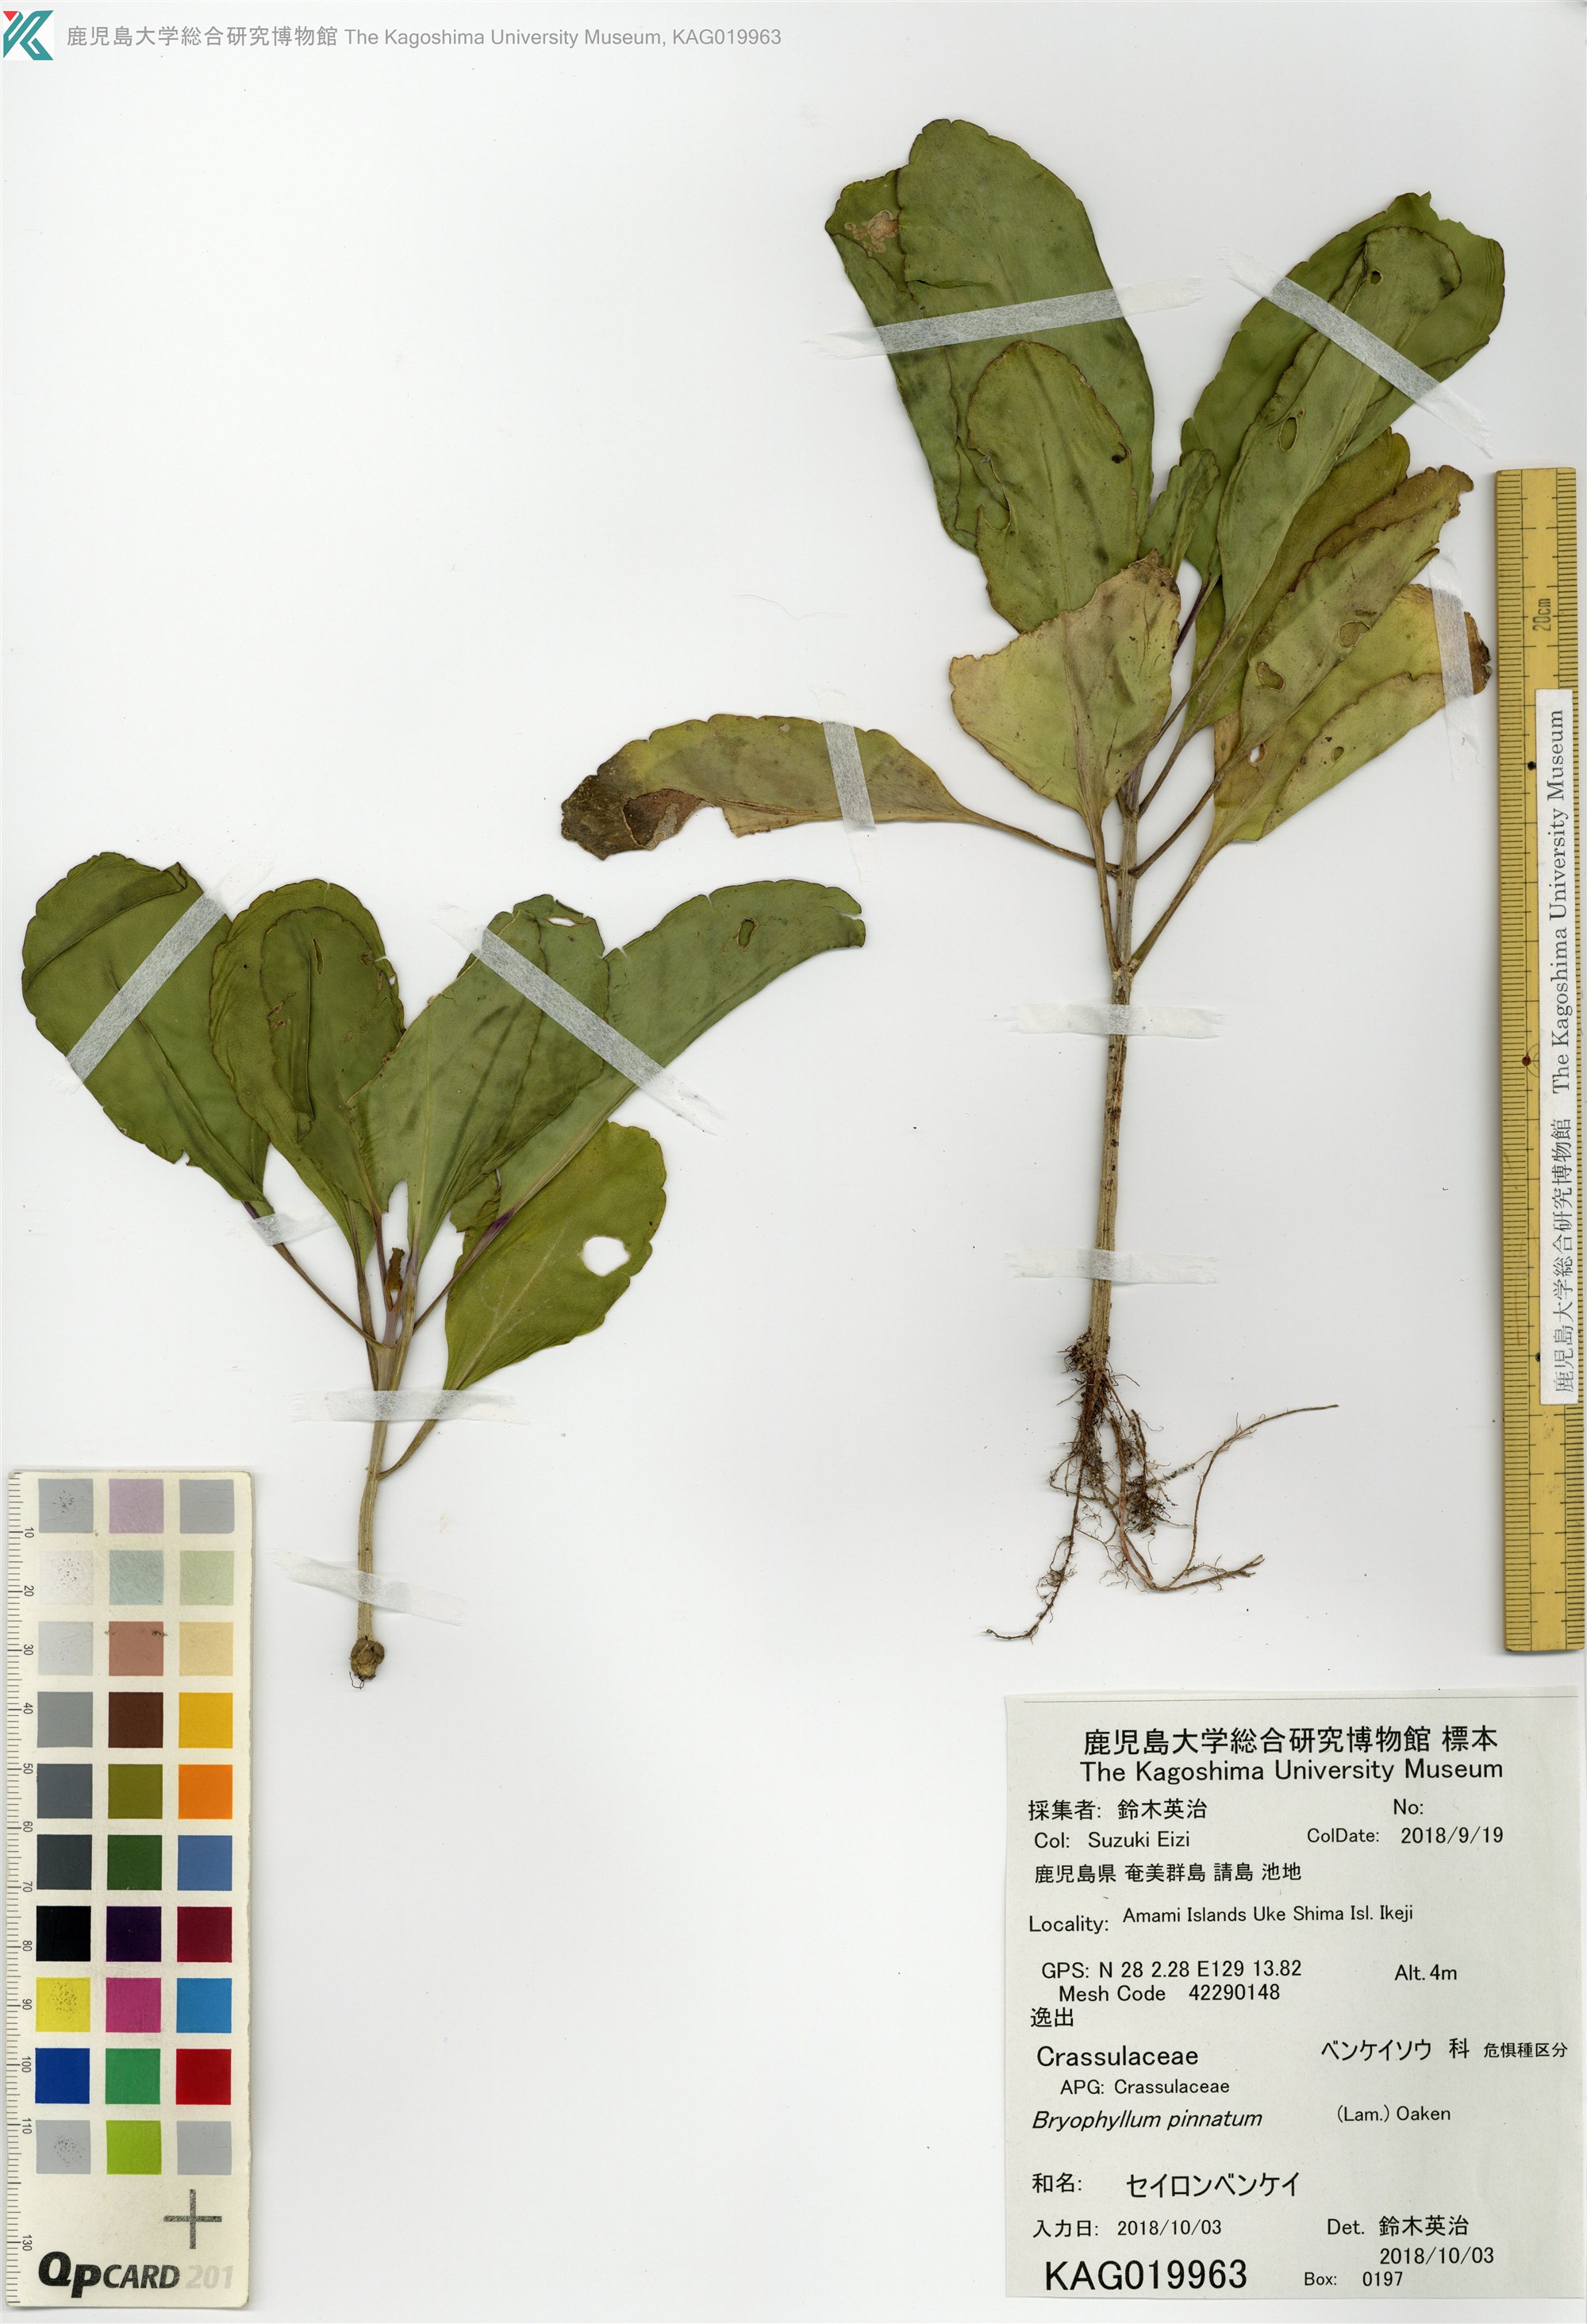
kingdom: Plantae
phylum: Tracheophyta
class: Magnoliopsida
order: Saxifragales
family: Crassulaceae
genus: Kalanchoe
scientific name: Kalanchoe pinnata
